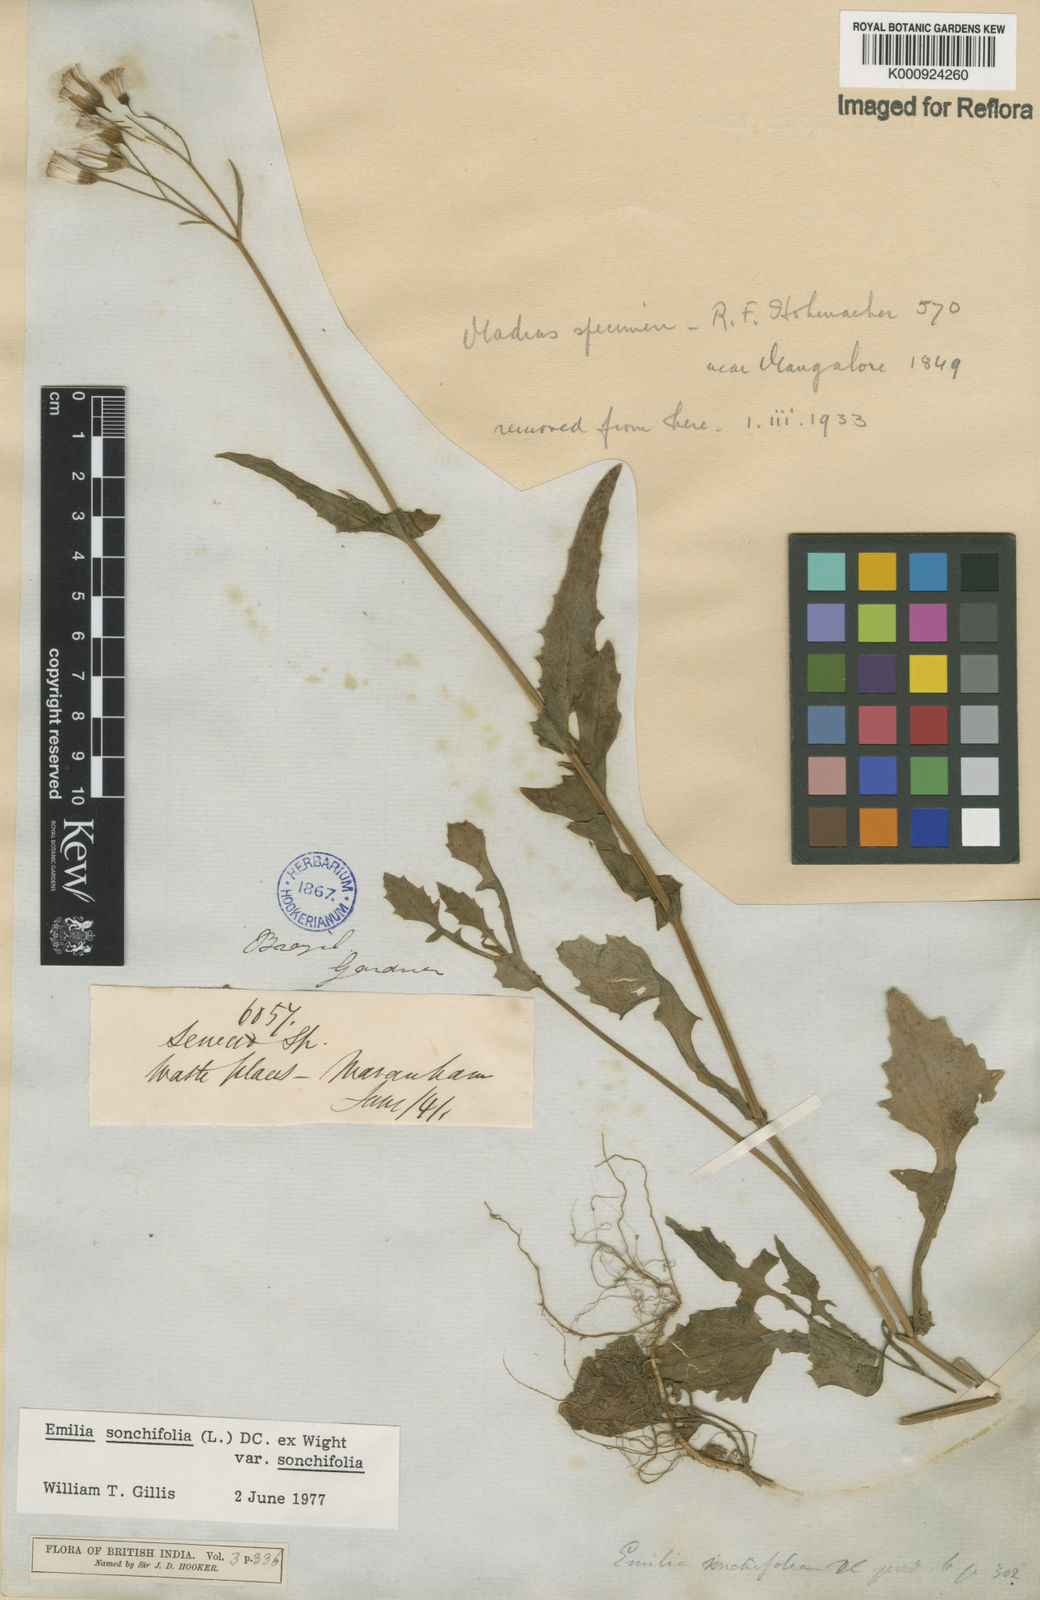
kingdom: Plantae
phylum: Tracheophyta
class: Magnoliopsida
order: Asterales
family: Asteraceae
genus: Emilia
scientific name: Emilia
